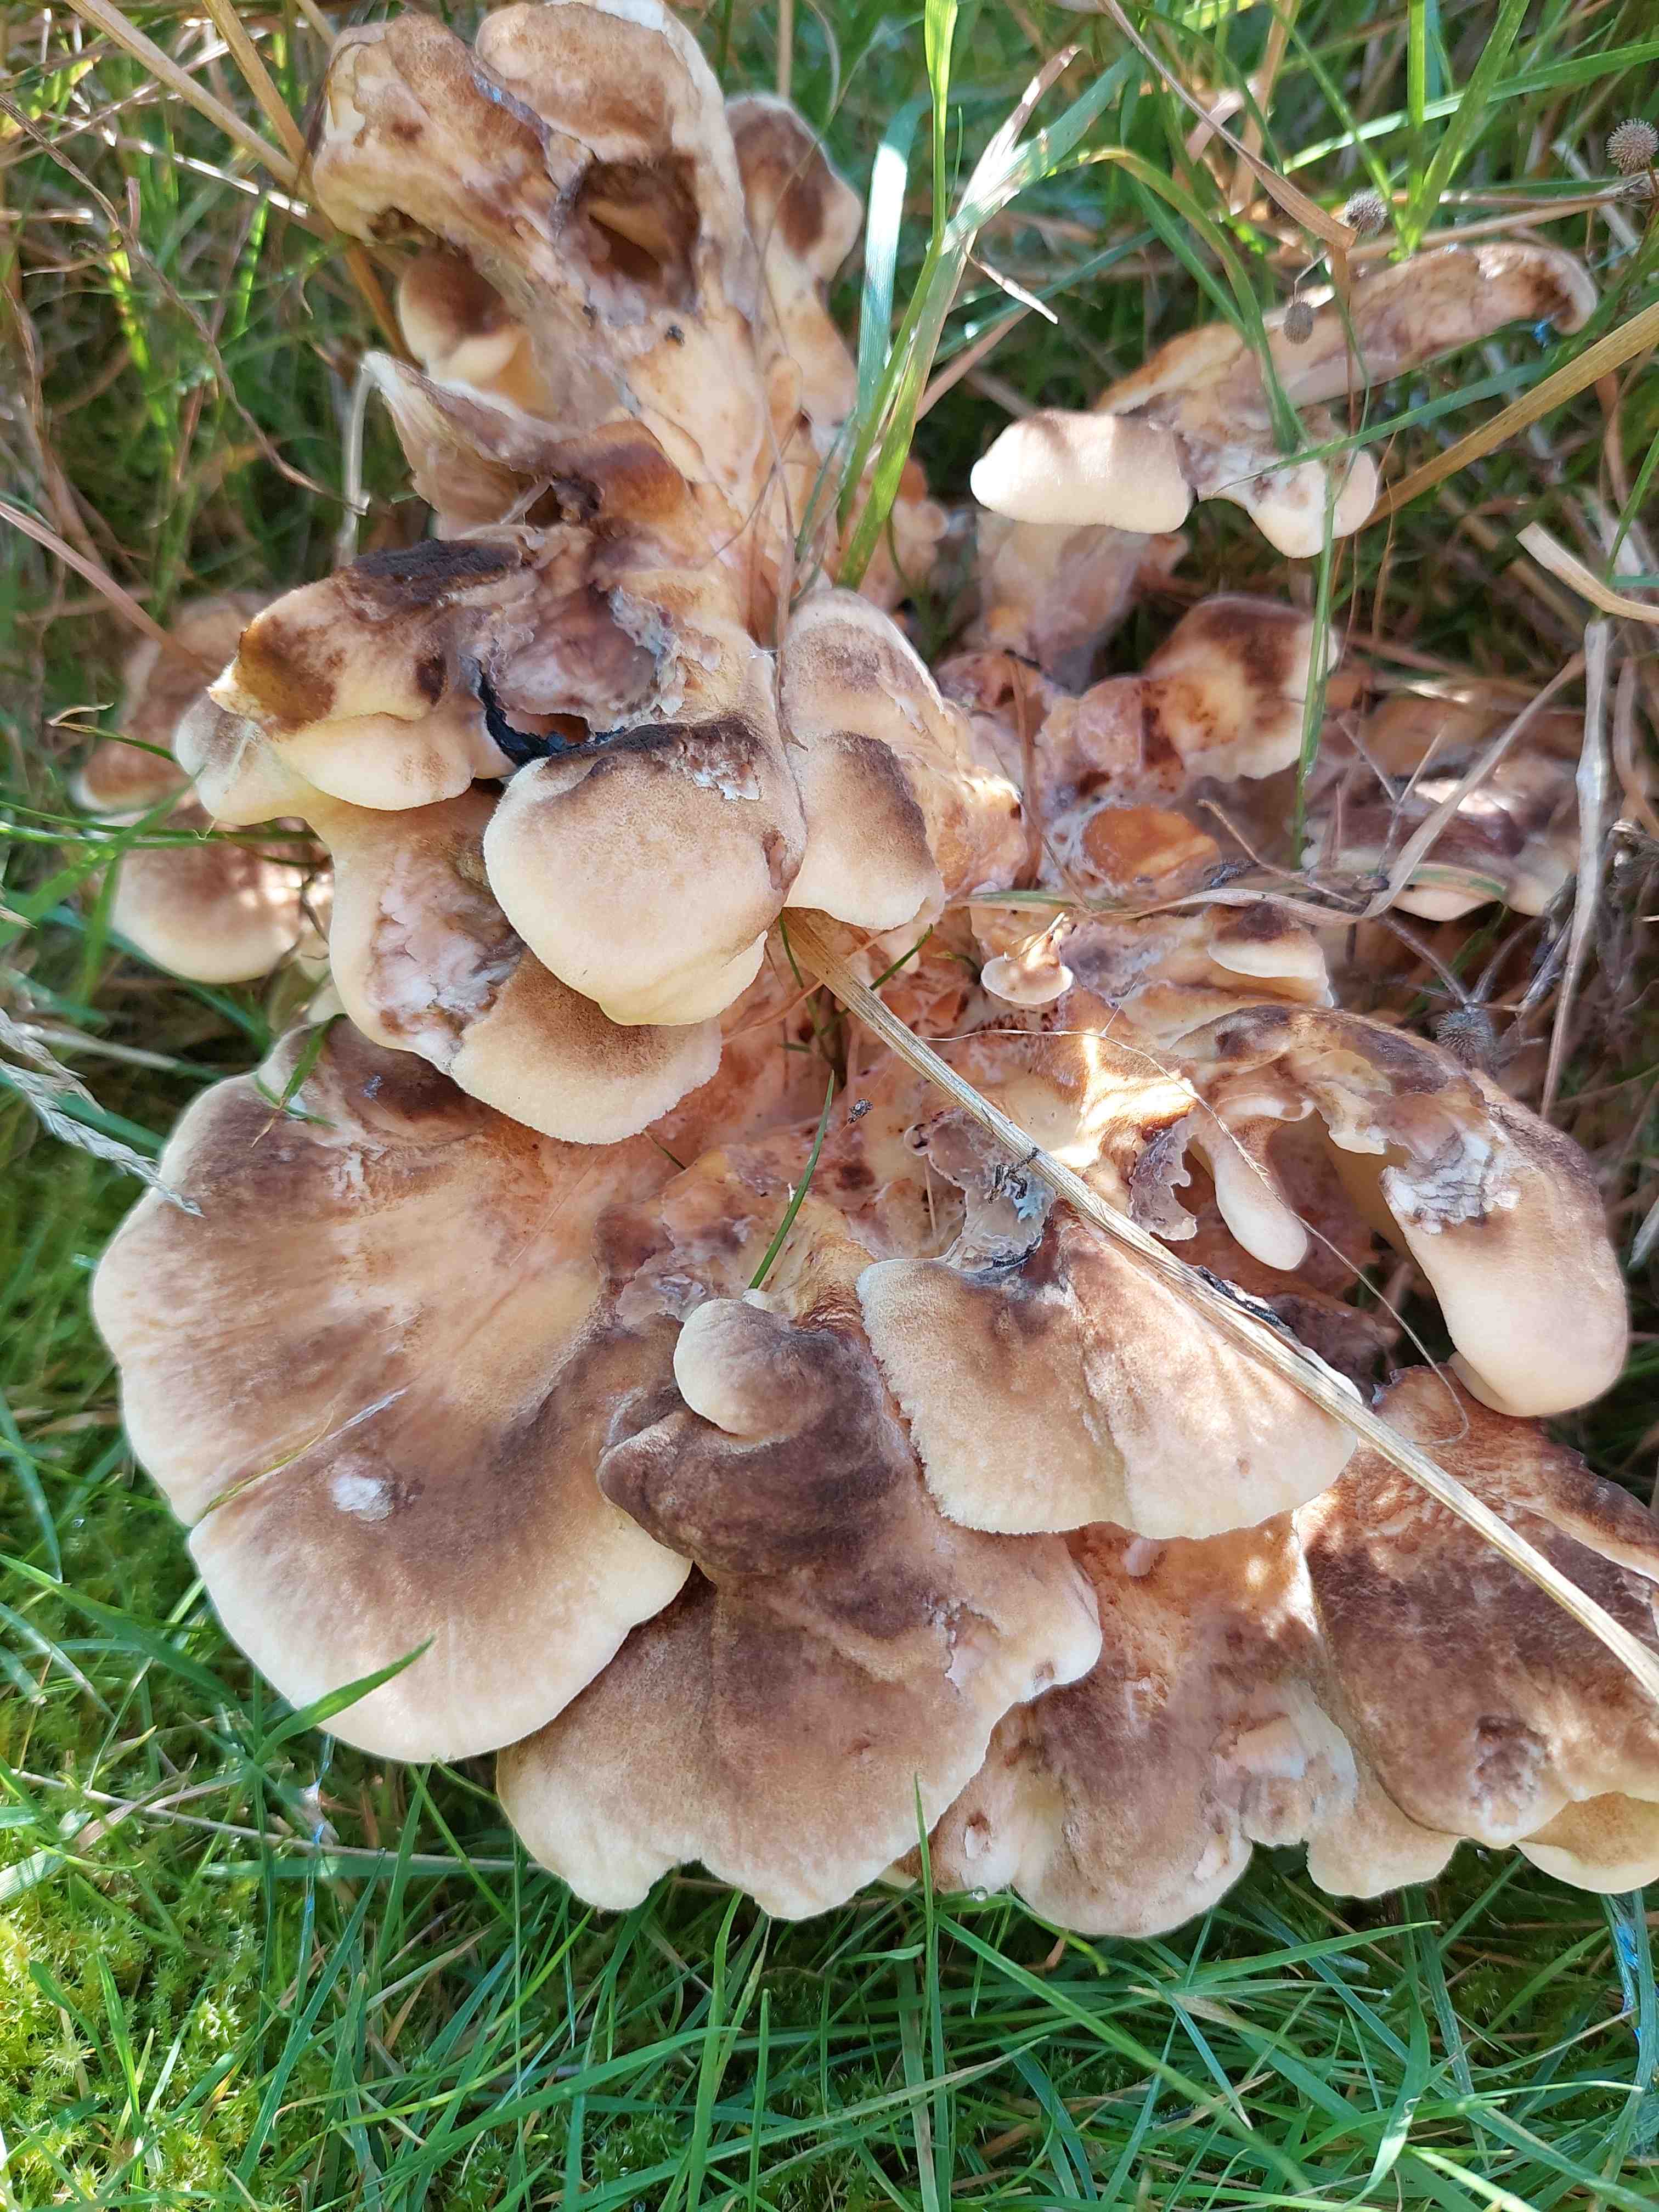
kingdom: Fungi
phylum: Basidiomycota
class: Agaricomycetes
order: Polyporales
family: Meripilaceae
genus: Meripilus
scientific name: Meripilus giganteus
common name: kæmpeporesvamp
